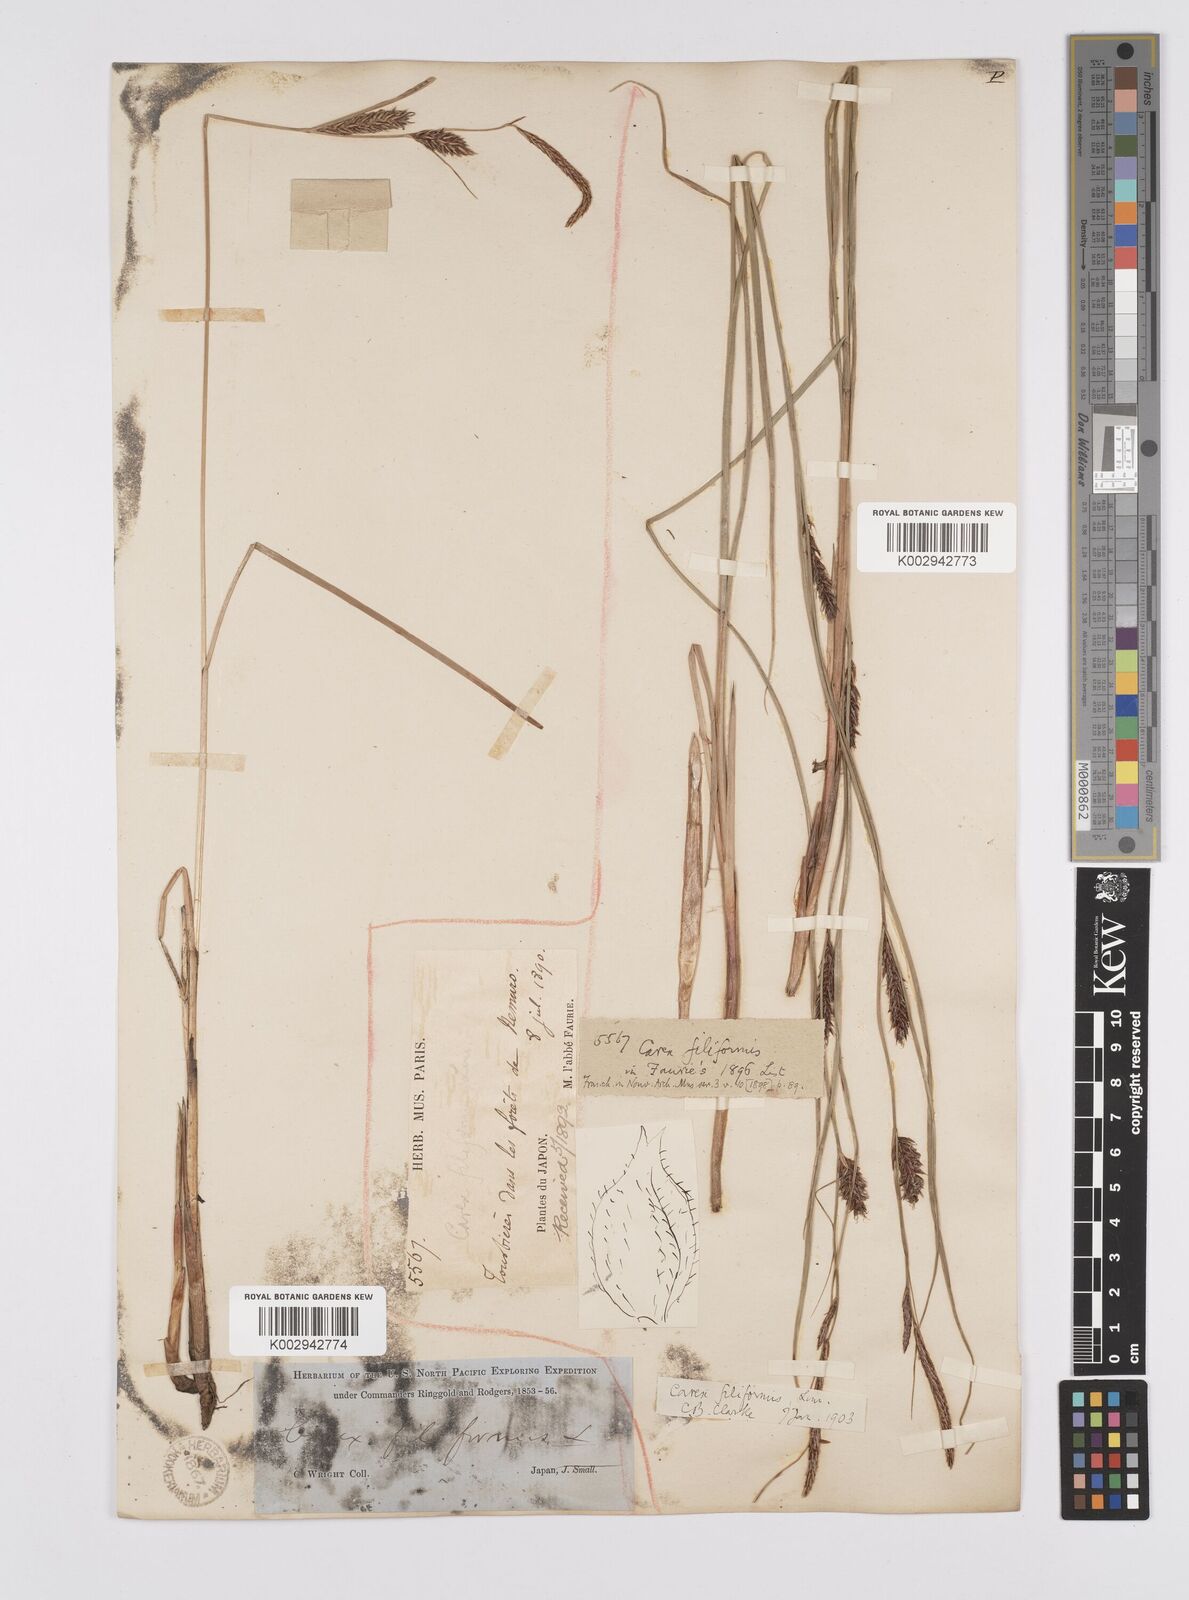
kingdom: Plantae
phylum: Tracheophyta
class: Liliopsida
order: Poales
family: Cyperaceae
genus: Carex
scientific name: Carex lasiocarpa
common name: Slender sedge
